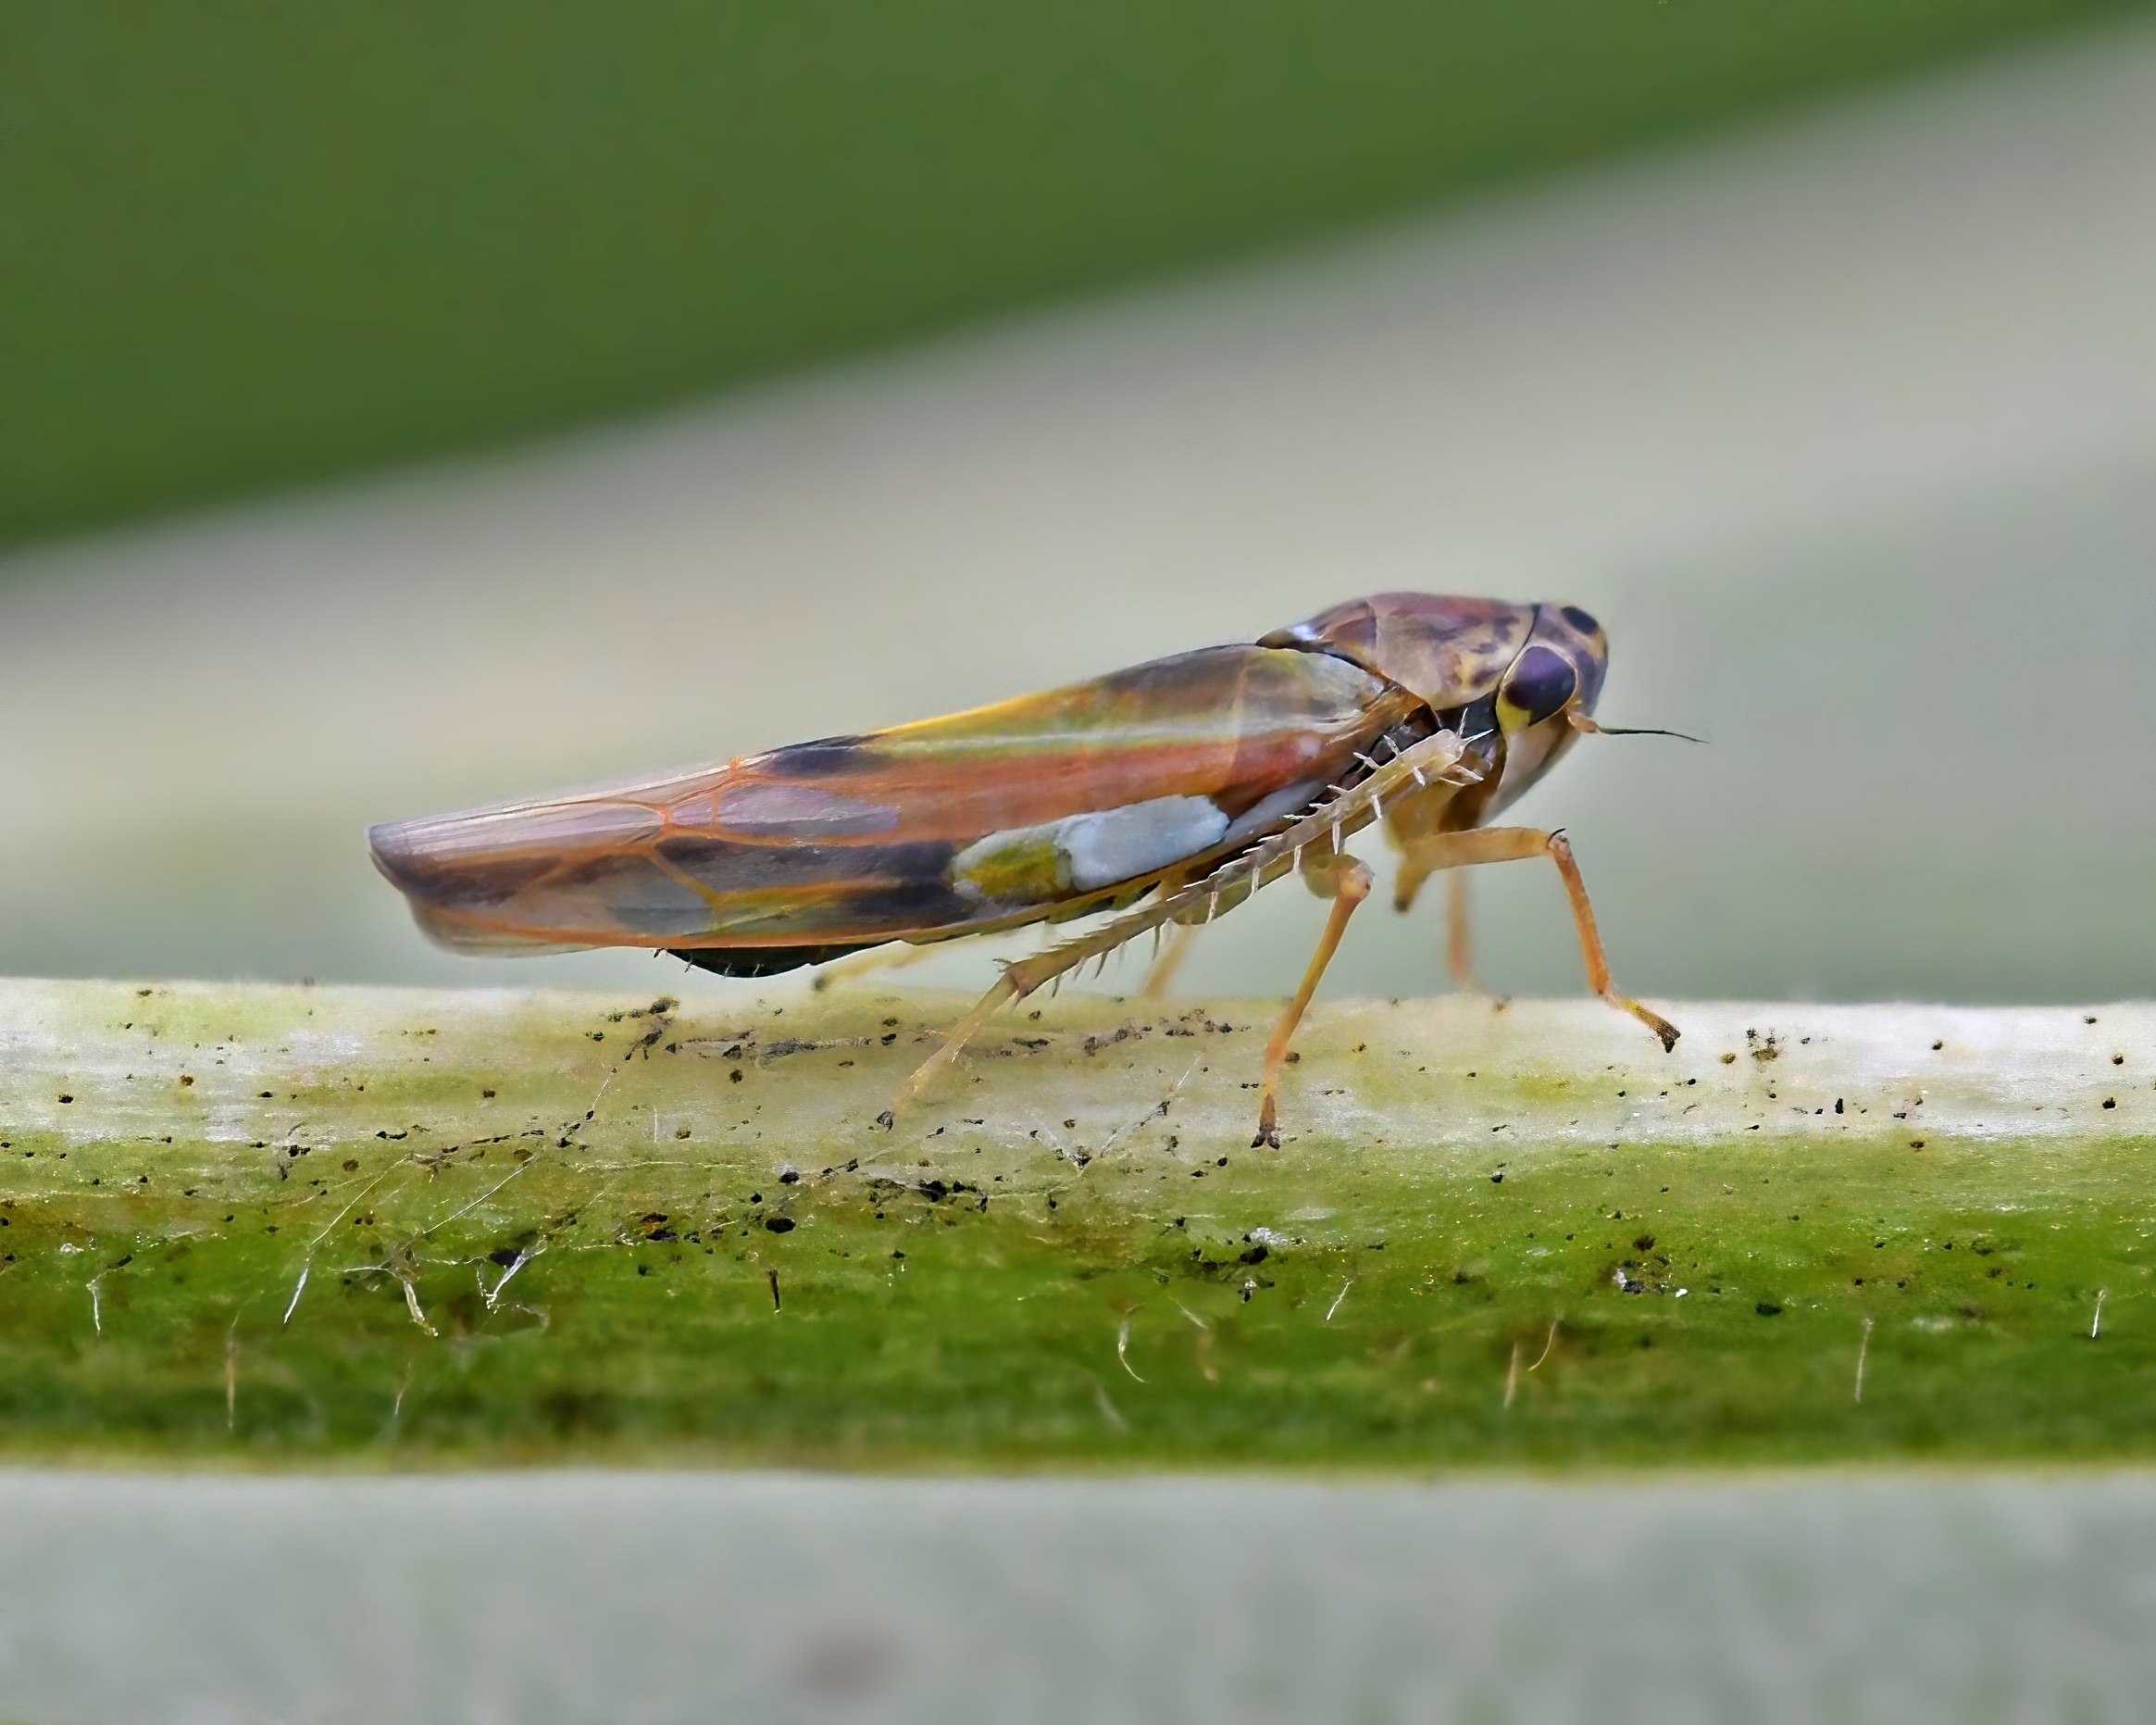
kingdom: Animalia
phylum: Arthropoda
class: Insecta
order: Hemiptera
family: Cicadellidae
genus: Vilbasteana
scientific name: Vilbasteana oculata
